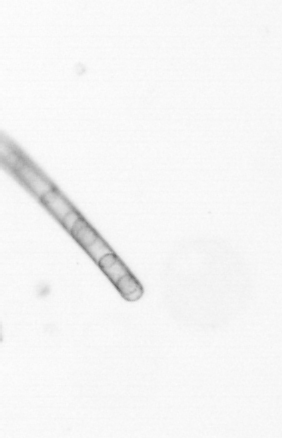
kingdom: Chromista
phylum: Ochrophyta
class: Bacillariophyceae
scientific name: Bacillariophyceae
